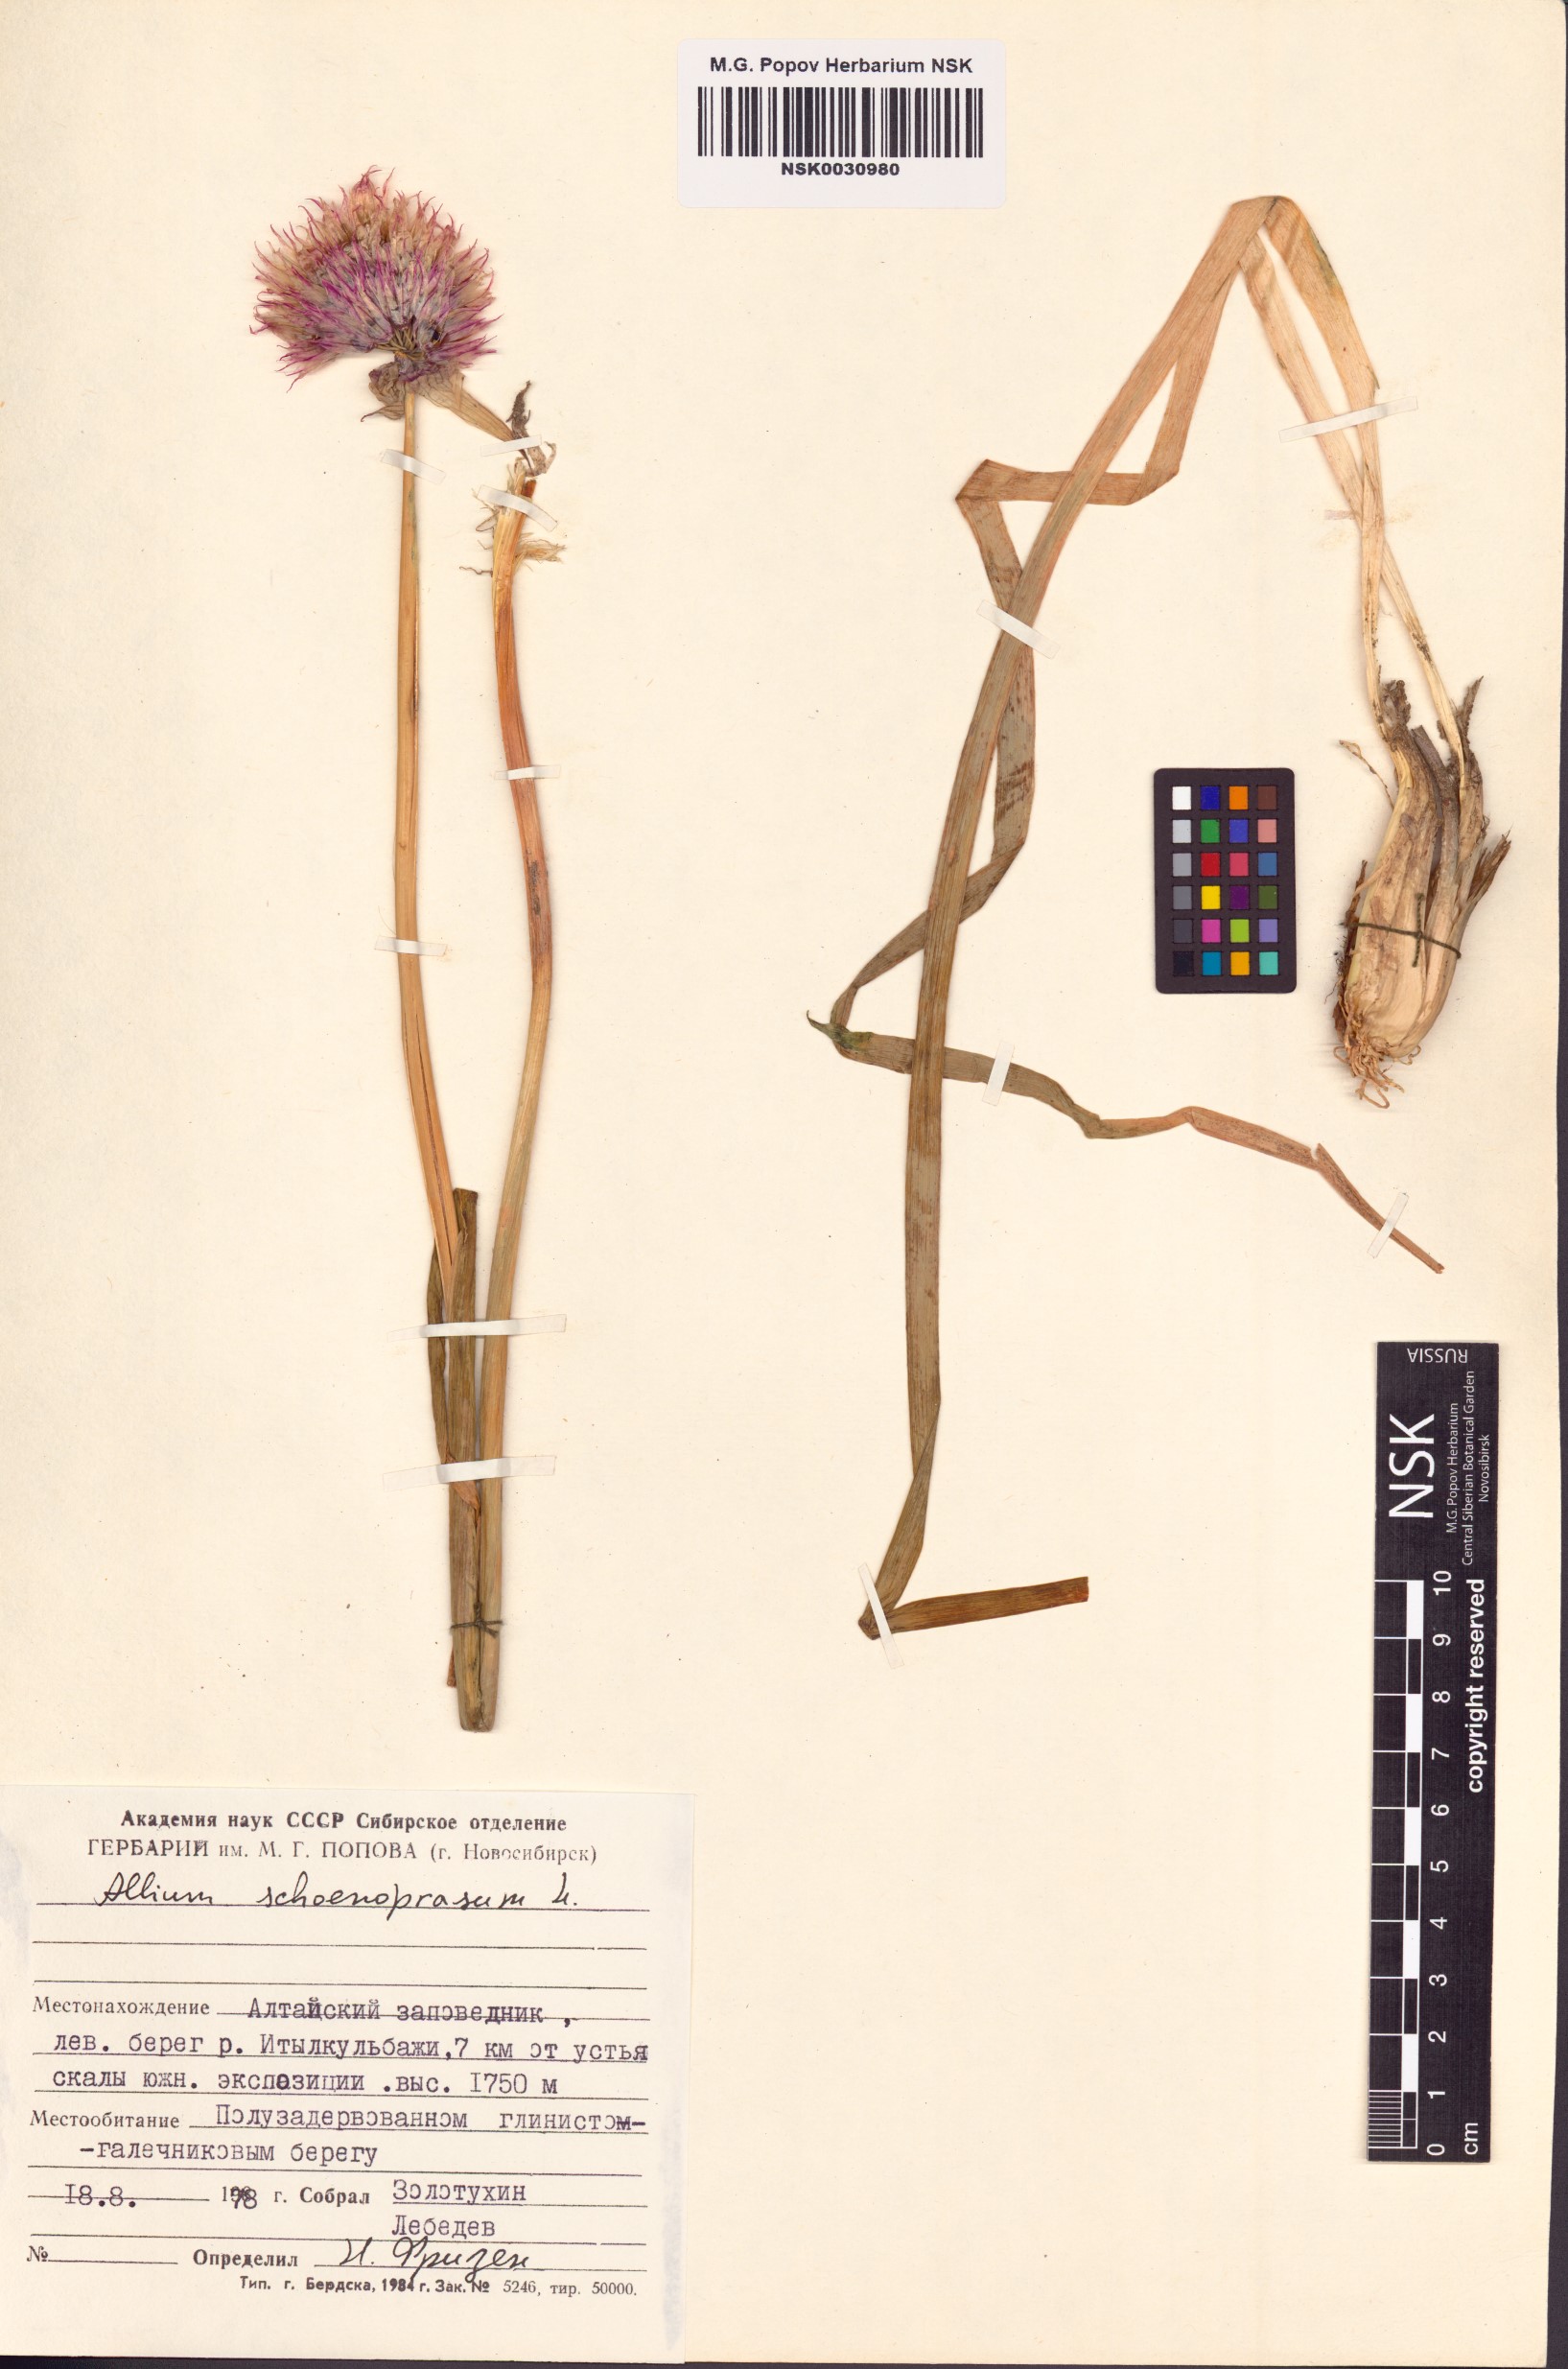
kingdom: Plantae
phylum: Tracheophyta
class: Liliopsida
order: Asparagales
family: Amaryllidaceae
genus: Allium
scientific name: Allium schoenoprasum
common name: Chives
